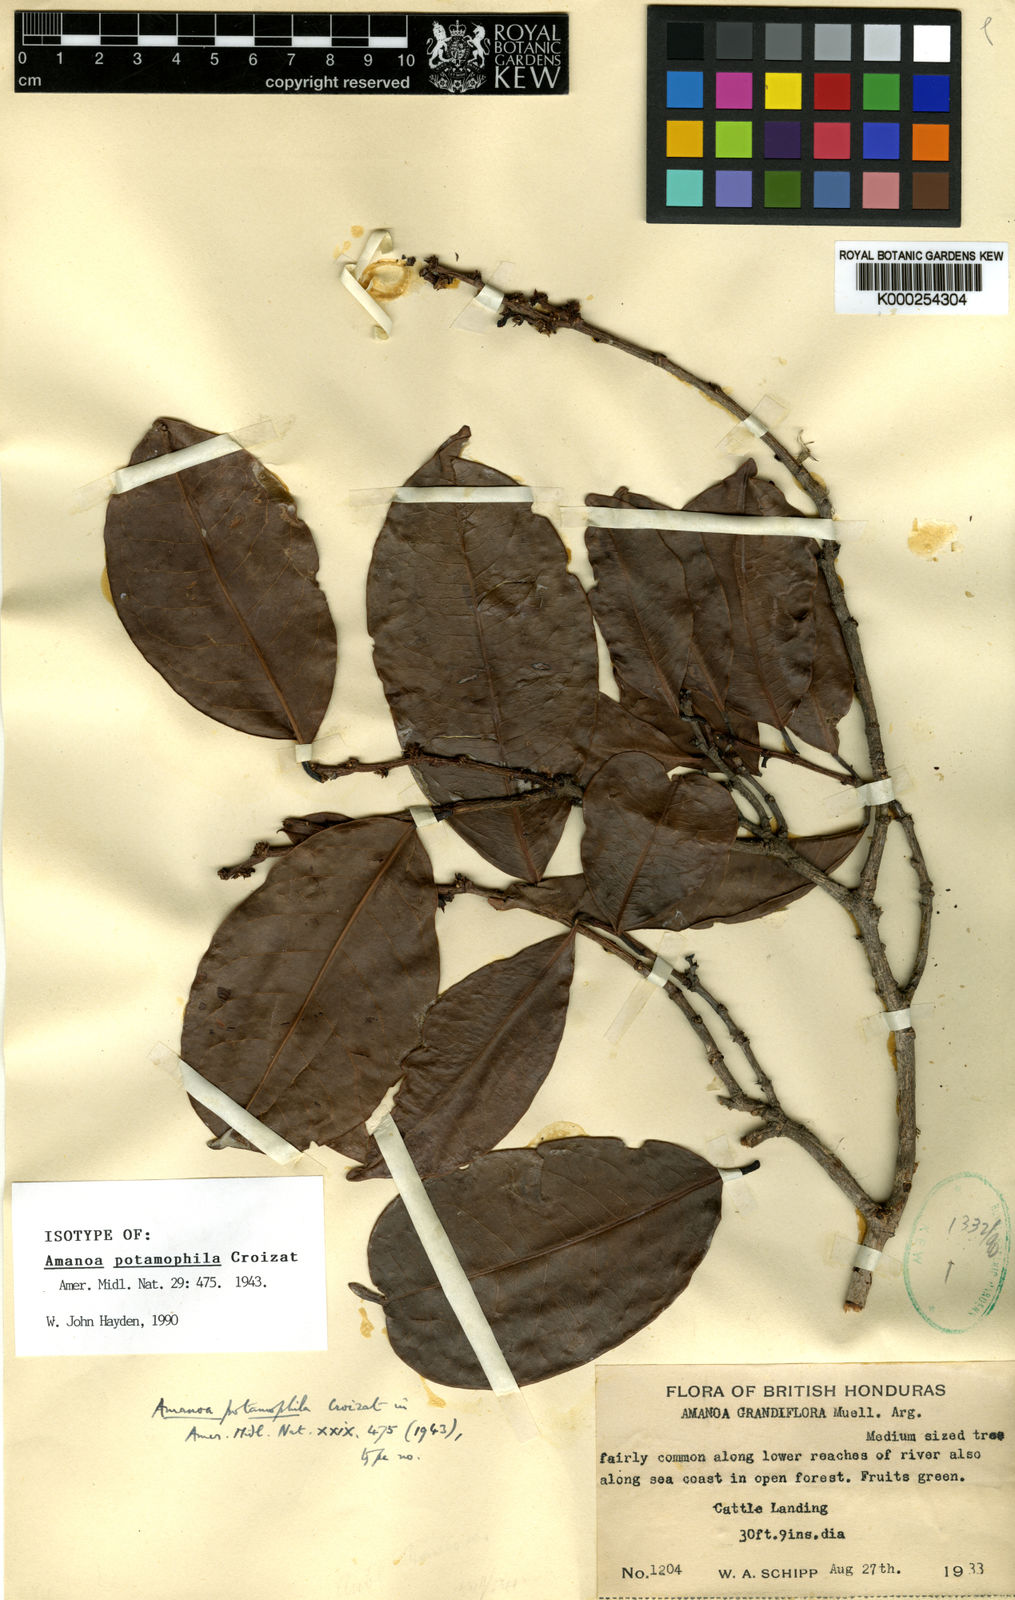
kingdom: Plantae
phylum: Tracheophyta
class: Magnoliopsida
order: Malpighiales
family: Phyllanthaceae
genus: Amanoa
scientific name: Amanoa guianensis
